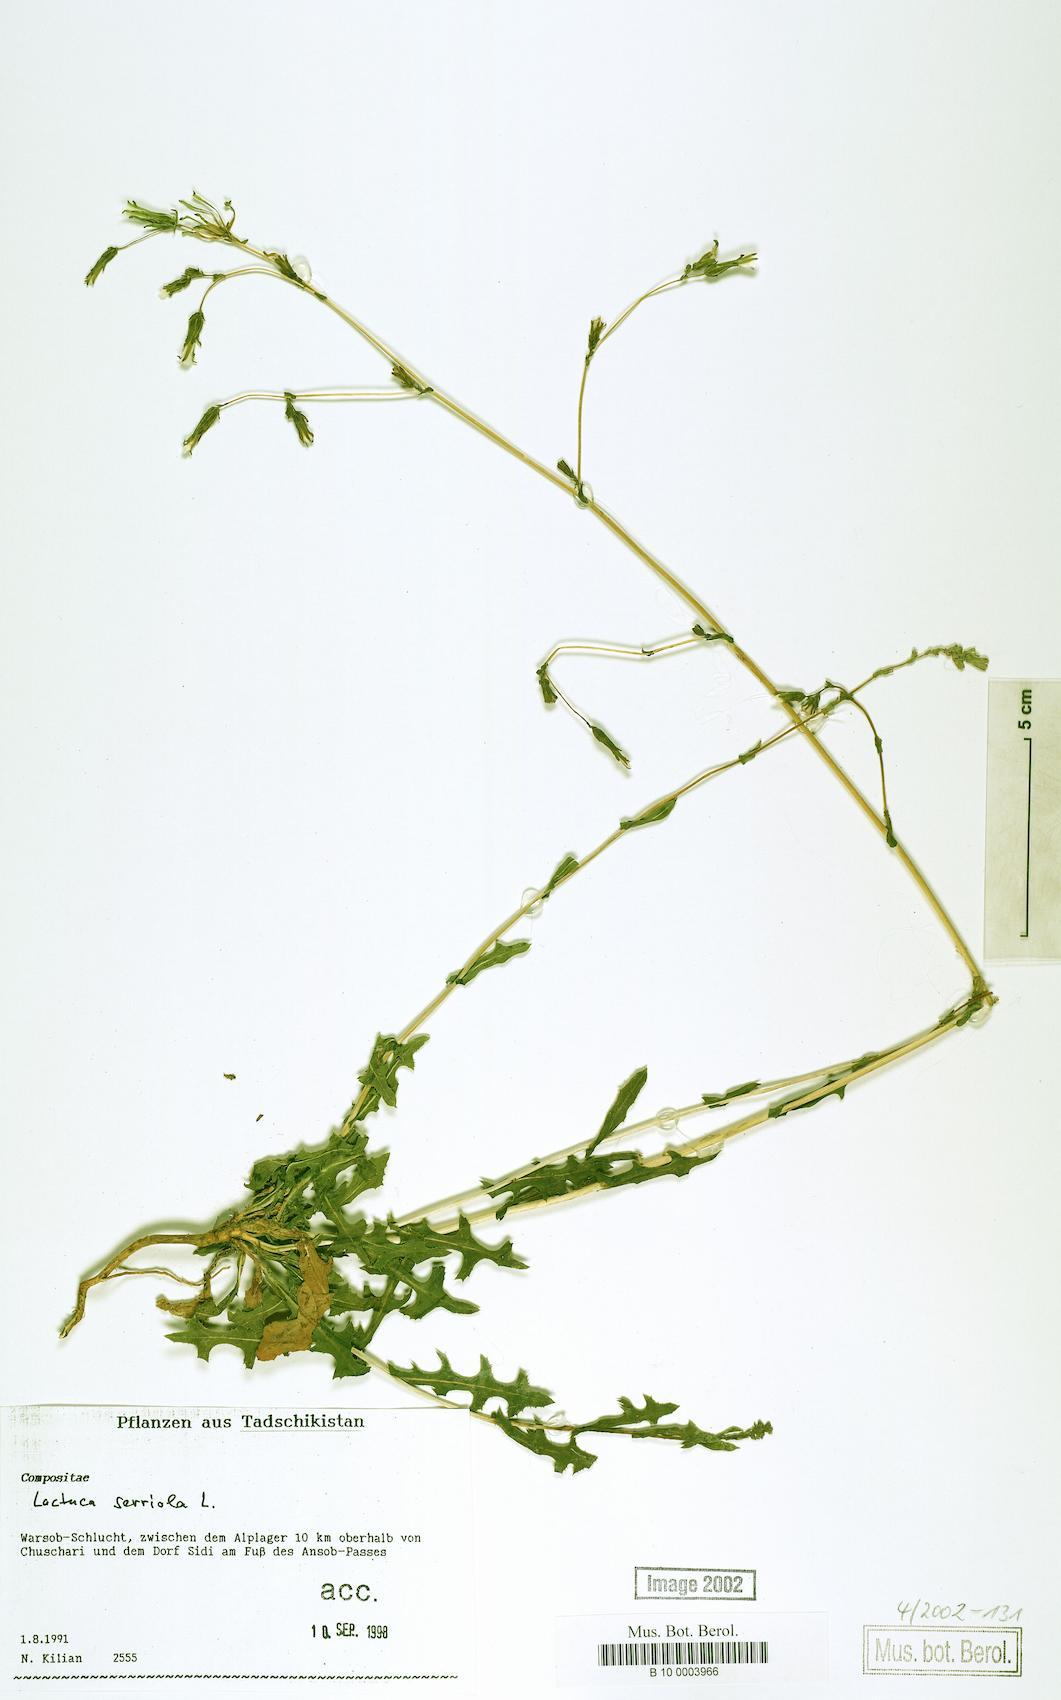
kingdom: Plantae
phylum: Tracheophyta
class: Magnoliopsida
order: Asterales
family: Asteraceae
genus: Lactuca
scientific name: Lactuca serriola
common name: Prickly lettuce
